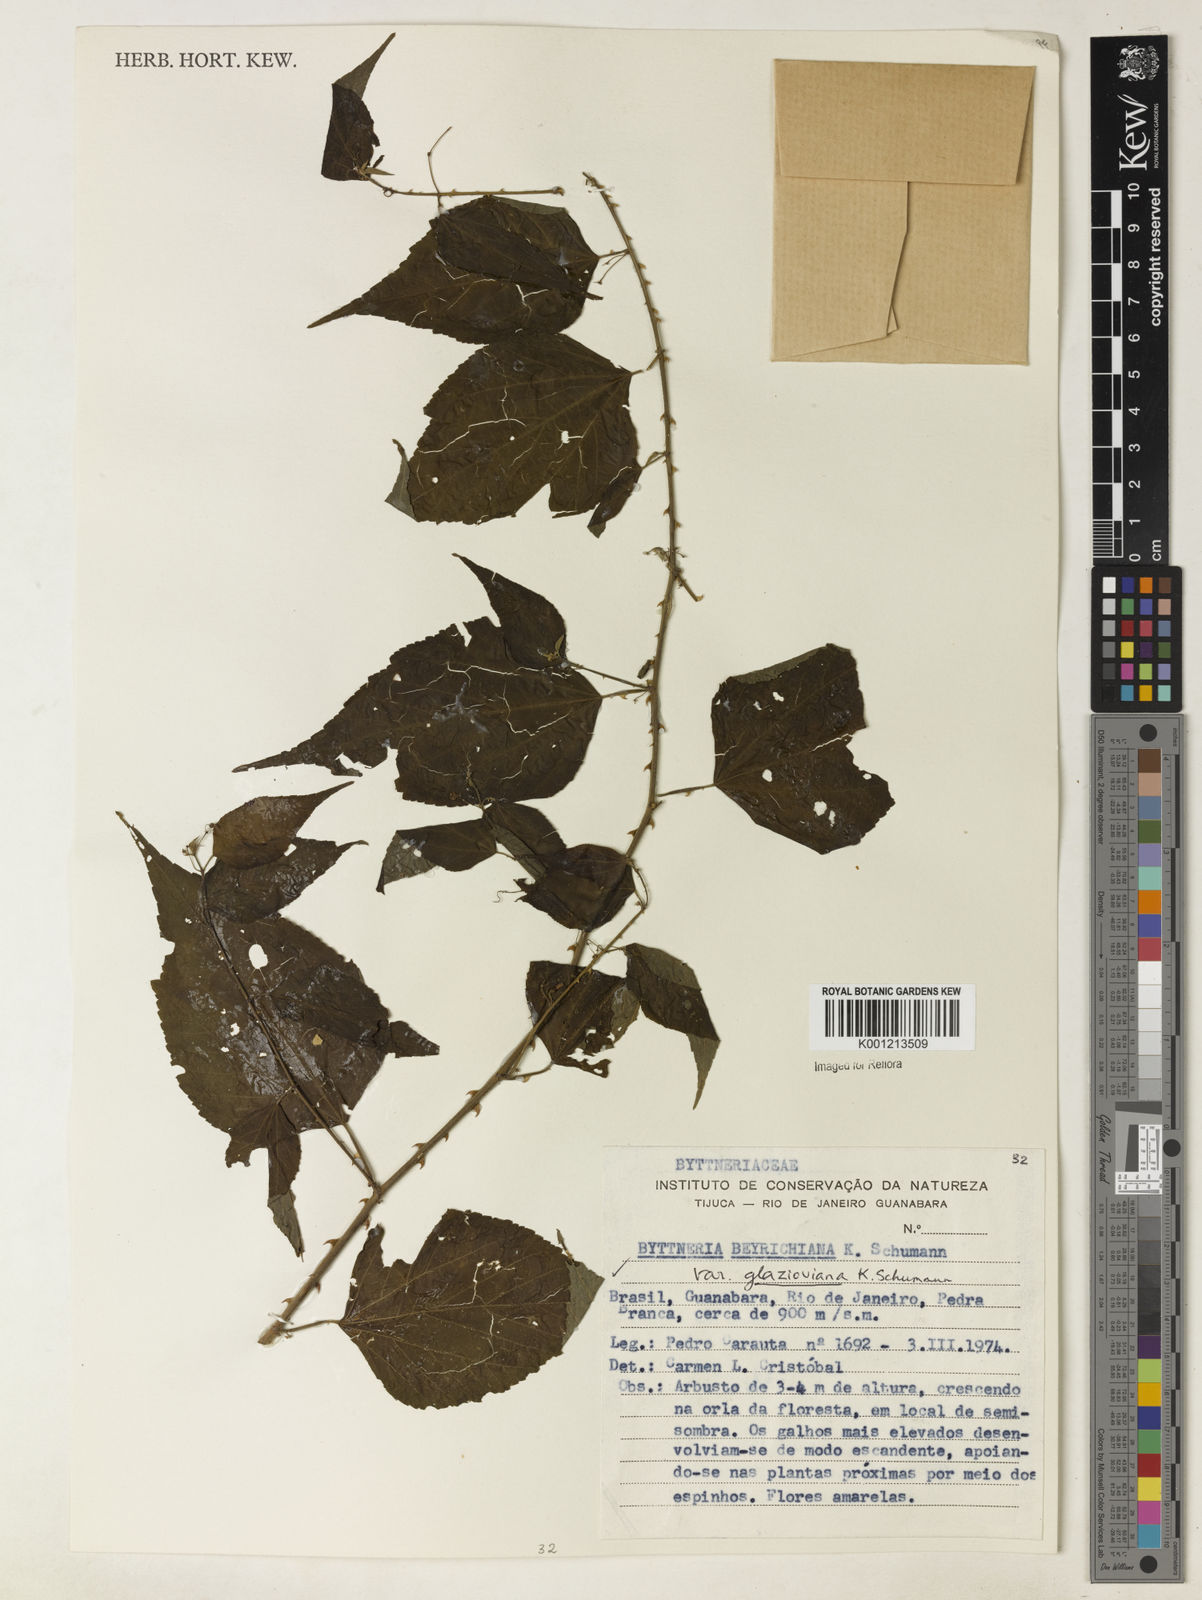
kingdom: Plantae
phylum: Tracheophyta
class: Magnoliopsida
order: Malvales
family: Malvaceae
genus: Byttneria
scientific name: Byttneria beyrichiana
